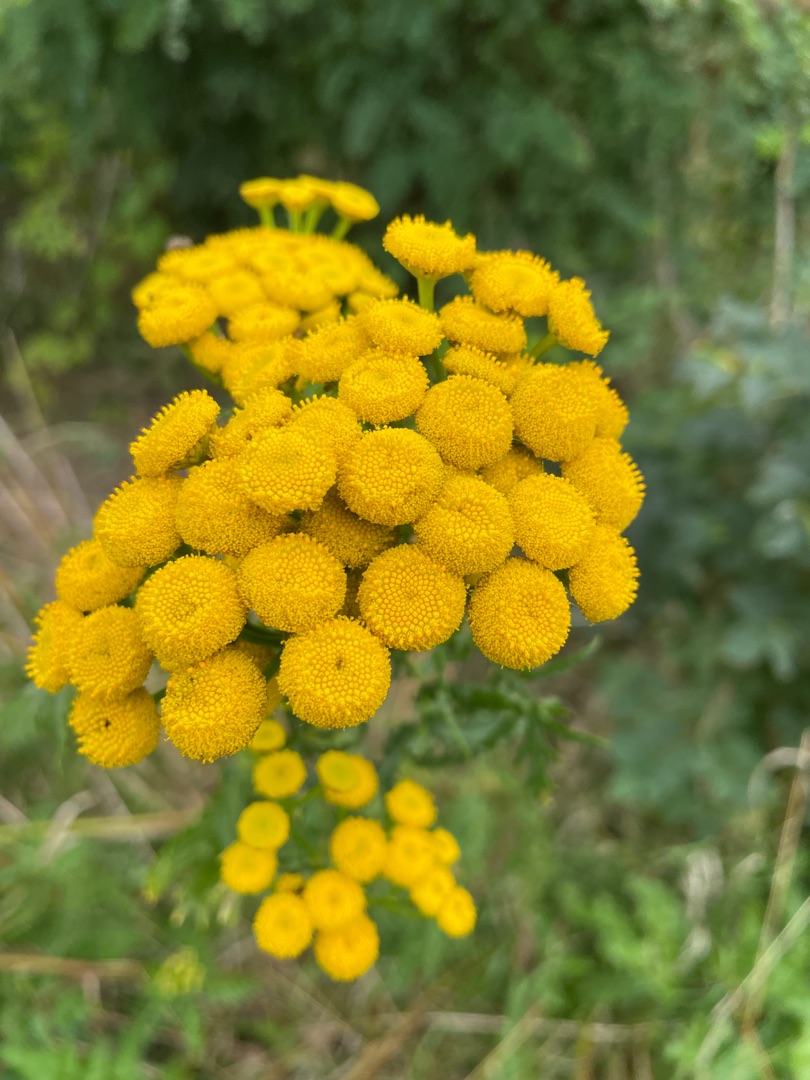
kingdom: Plantae
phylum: Tracheophyta
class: Magnoliopsida
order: Asterales
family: Asteraceae
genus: Tanacetum
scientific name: Tanacetum vulgare
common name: Rejnfan
